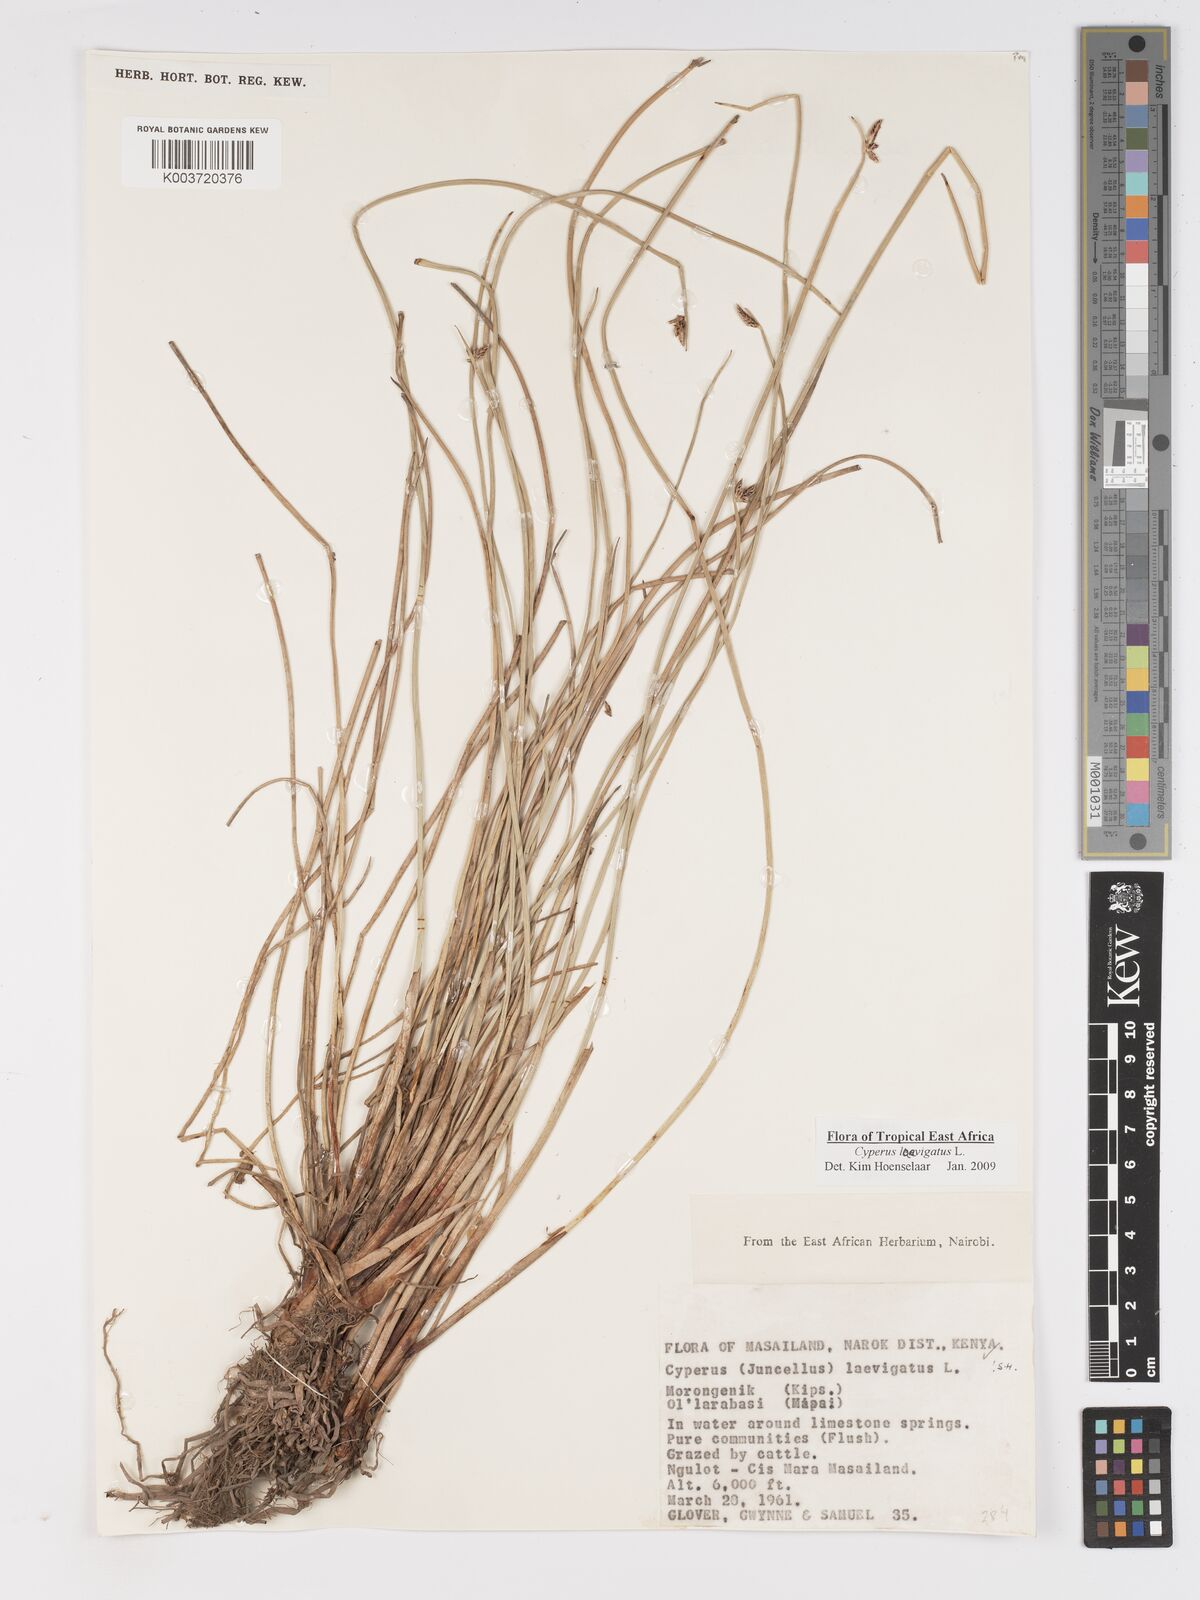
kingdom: Plantae
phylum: Tracheophyta
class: Liliopsida
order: Poales
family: Cyperaceae
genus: Cyperus
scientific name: Cyperus laevigatus
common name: Smooth flat sedge
